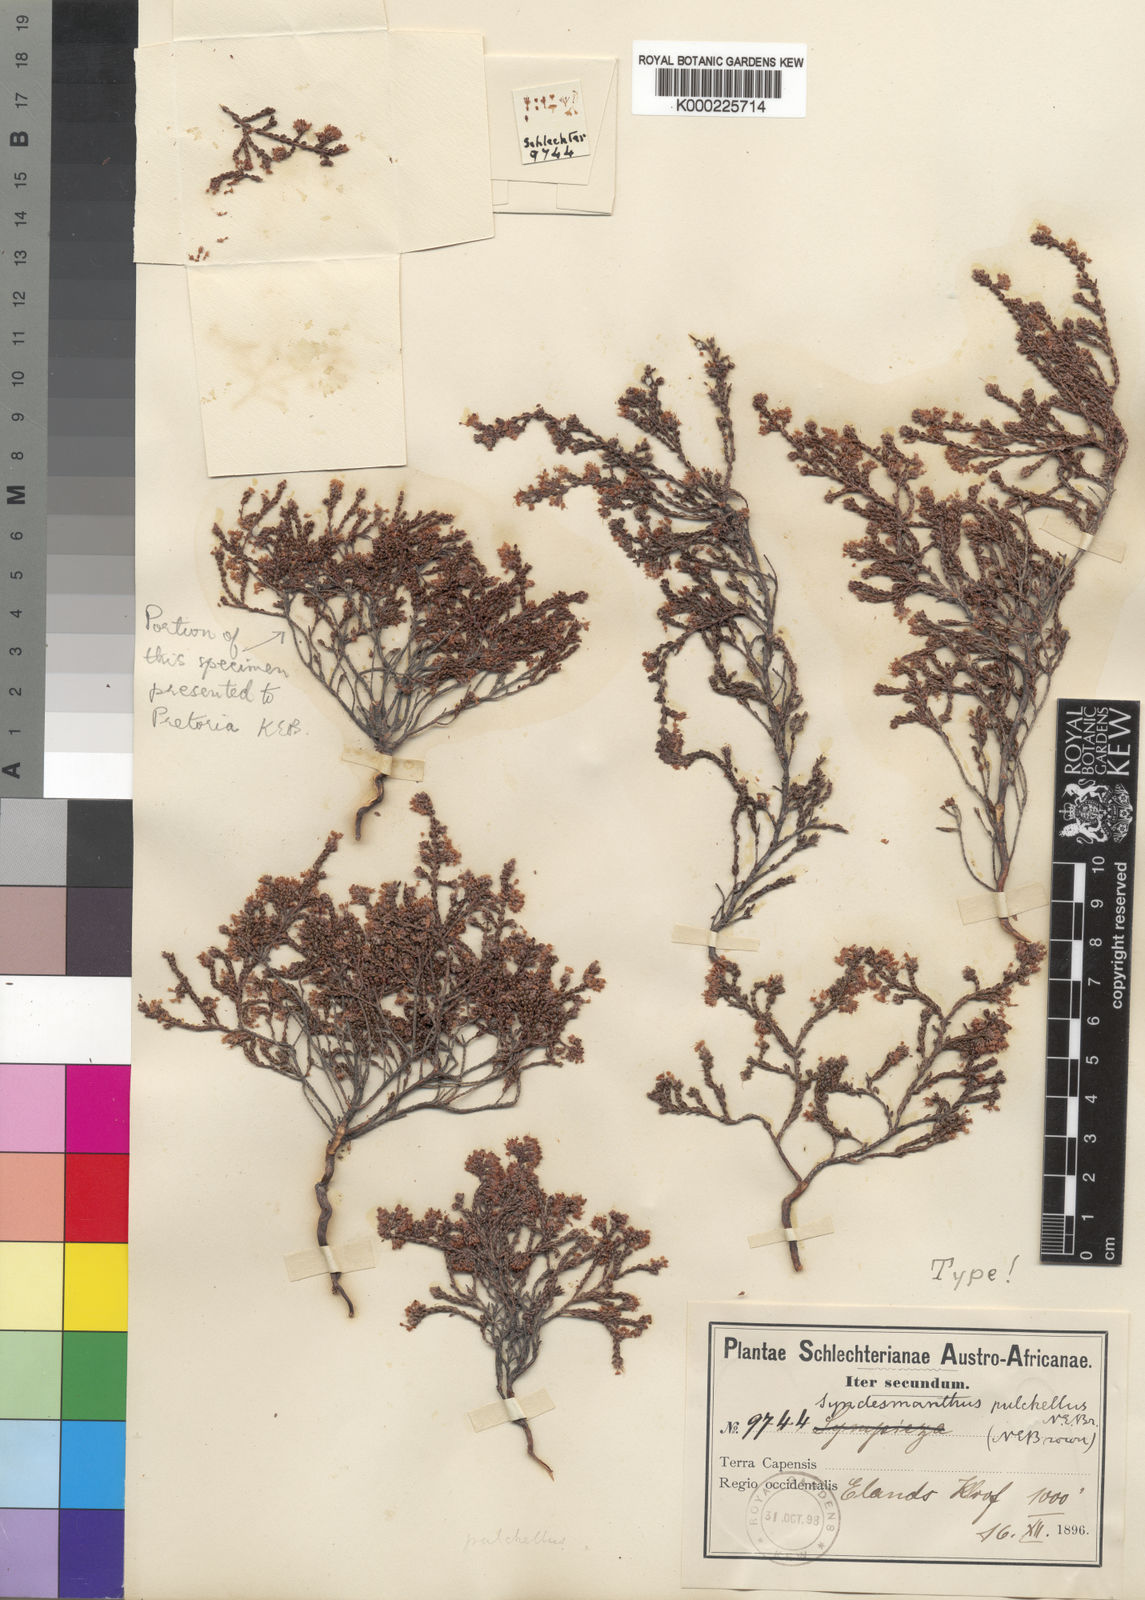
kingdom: Plantae
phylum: Tracheophyta
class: Magnoliopsida
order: Ericales
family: Ericaceae
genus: Erica
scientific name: Erica pulchelliflora
